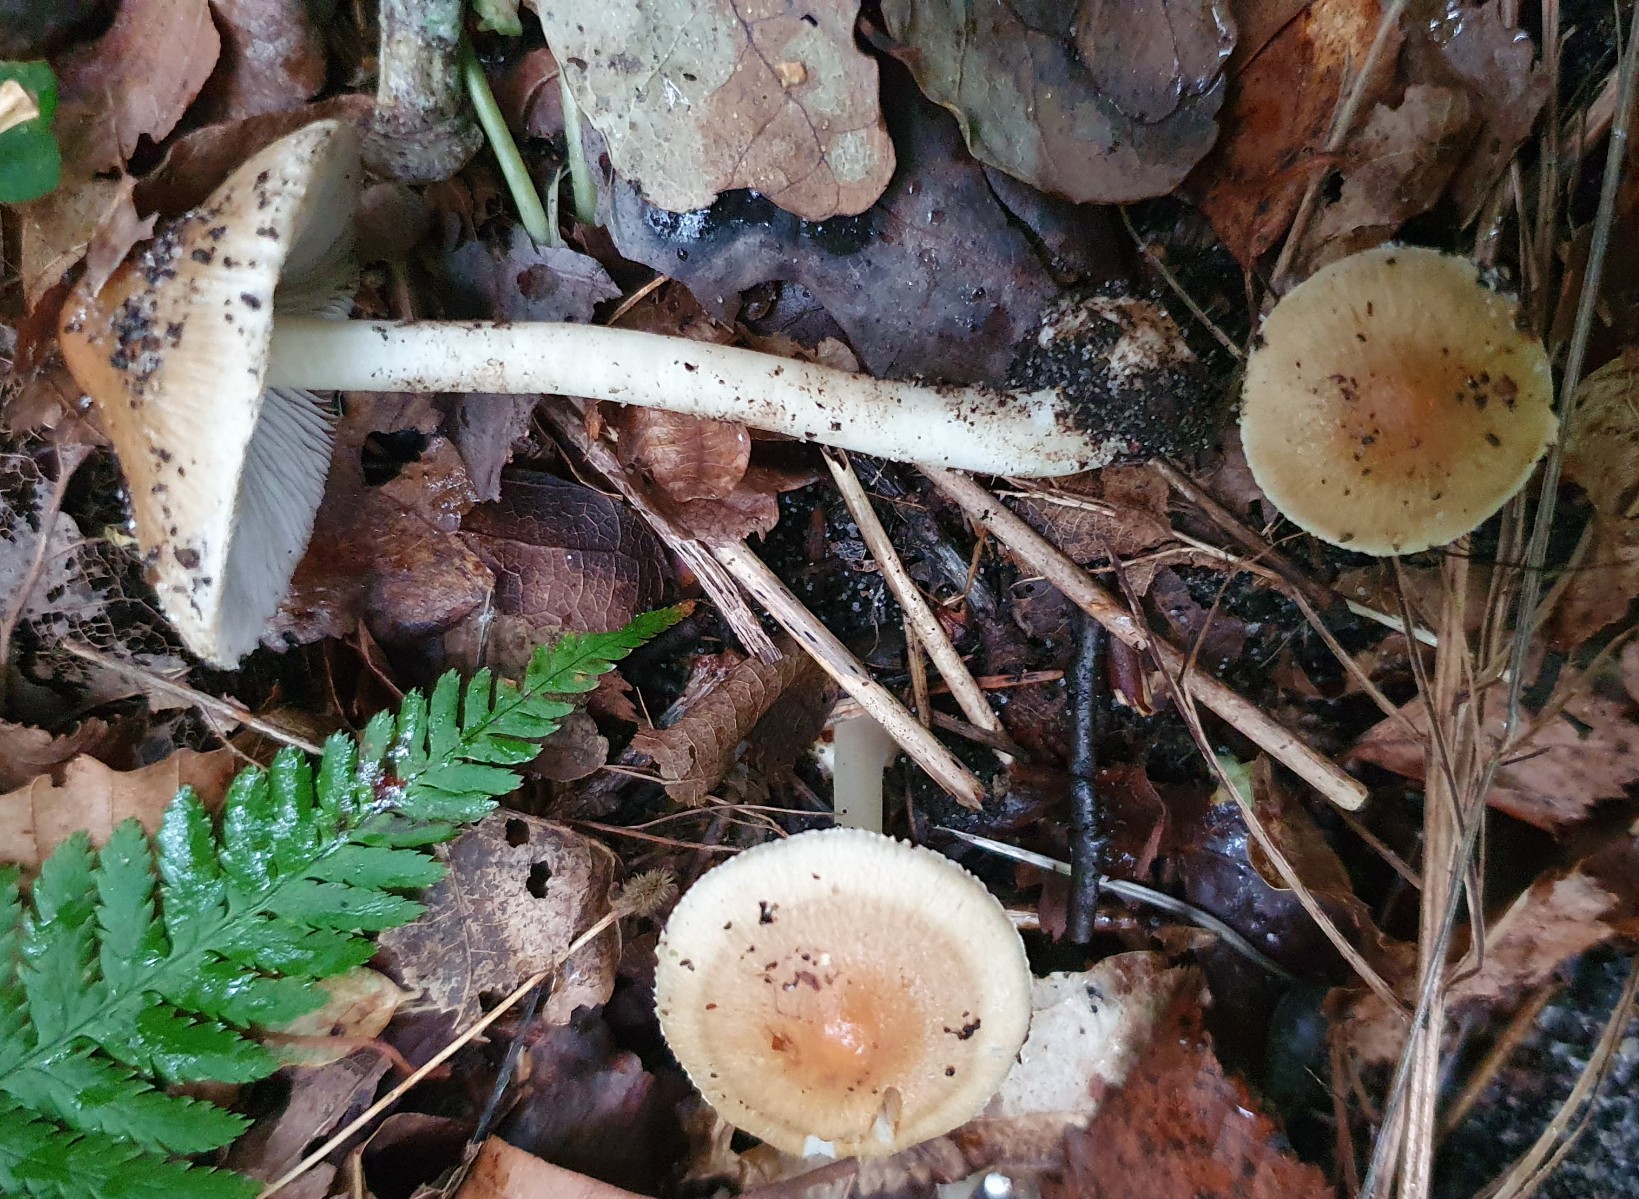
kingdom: Fungi
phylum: Basidiomycota
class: Agaricomycetes
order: Agaricales
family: Inocybaceae
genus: Inocybe
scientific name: Inocybe
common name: trævlhat
